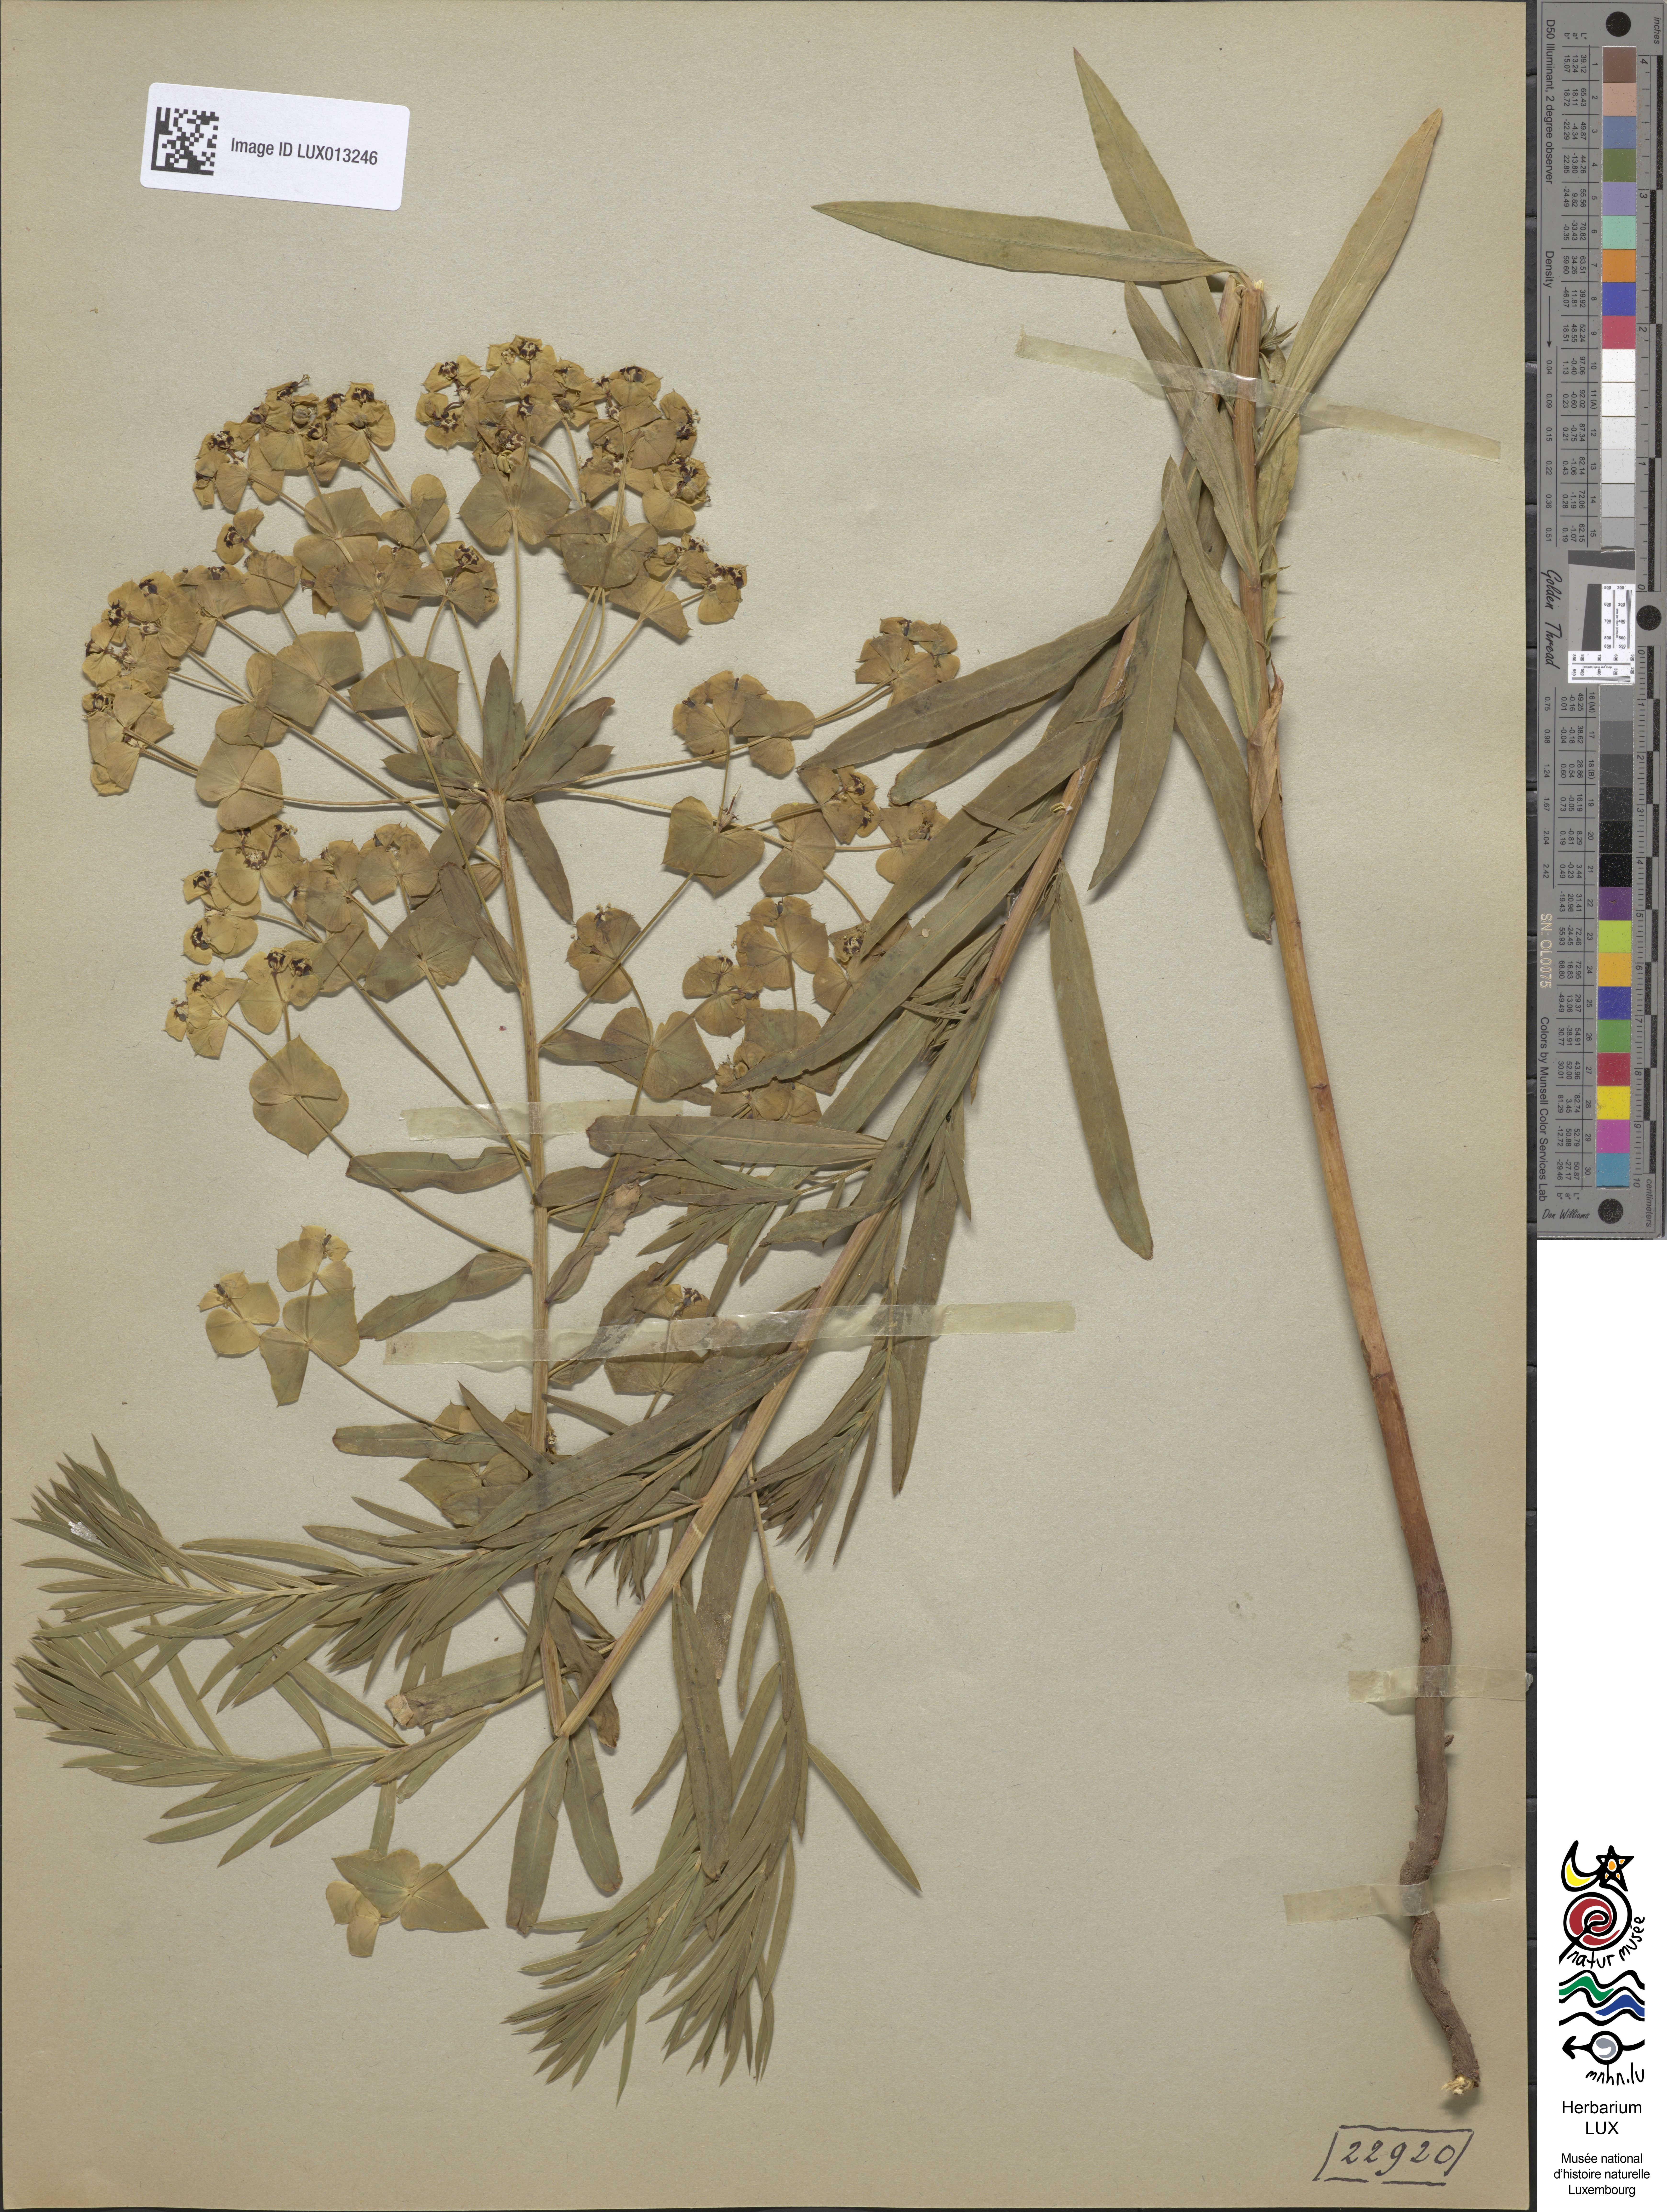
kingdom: Plantae
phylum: Tracheophyta
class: Magnoliopsida
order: Malpighiales
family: Euphorbiaceae
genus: Euphorbia
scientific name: Euphorbia saratoi
